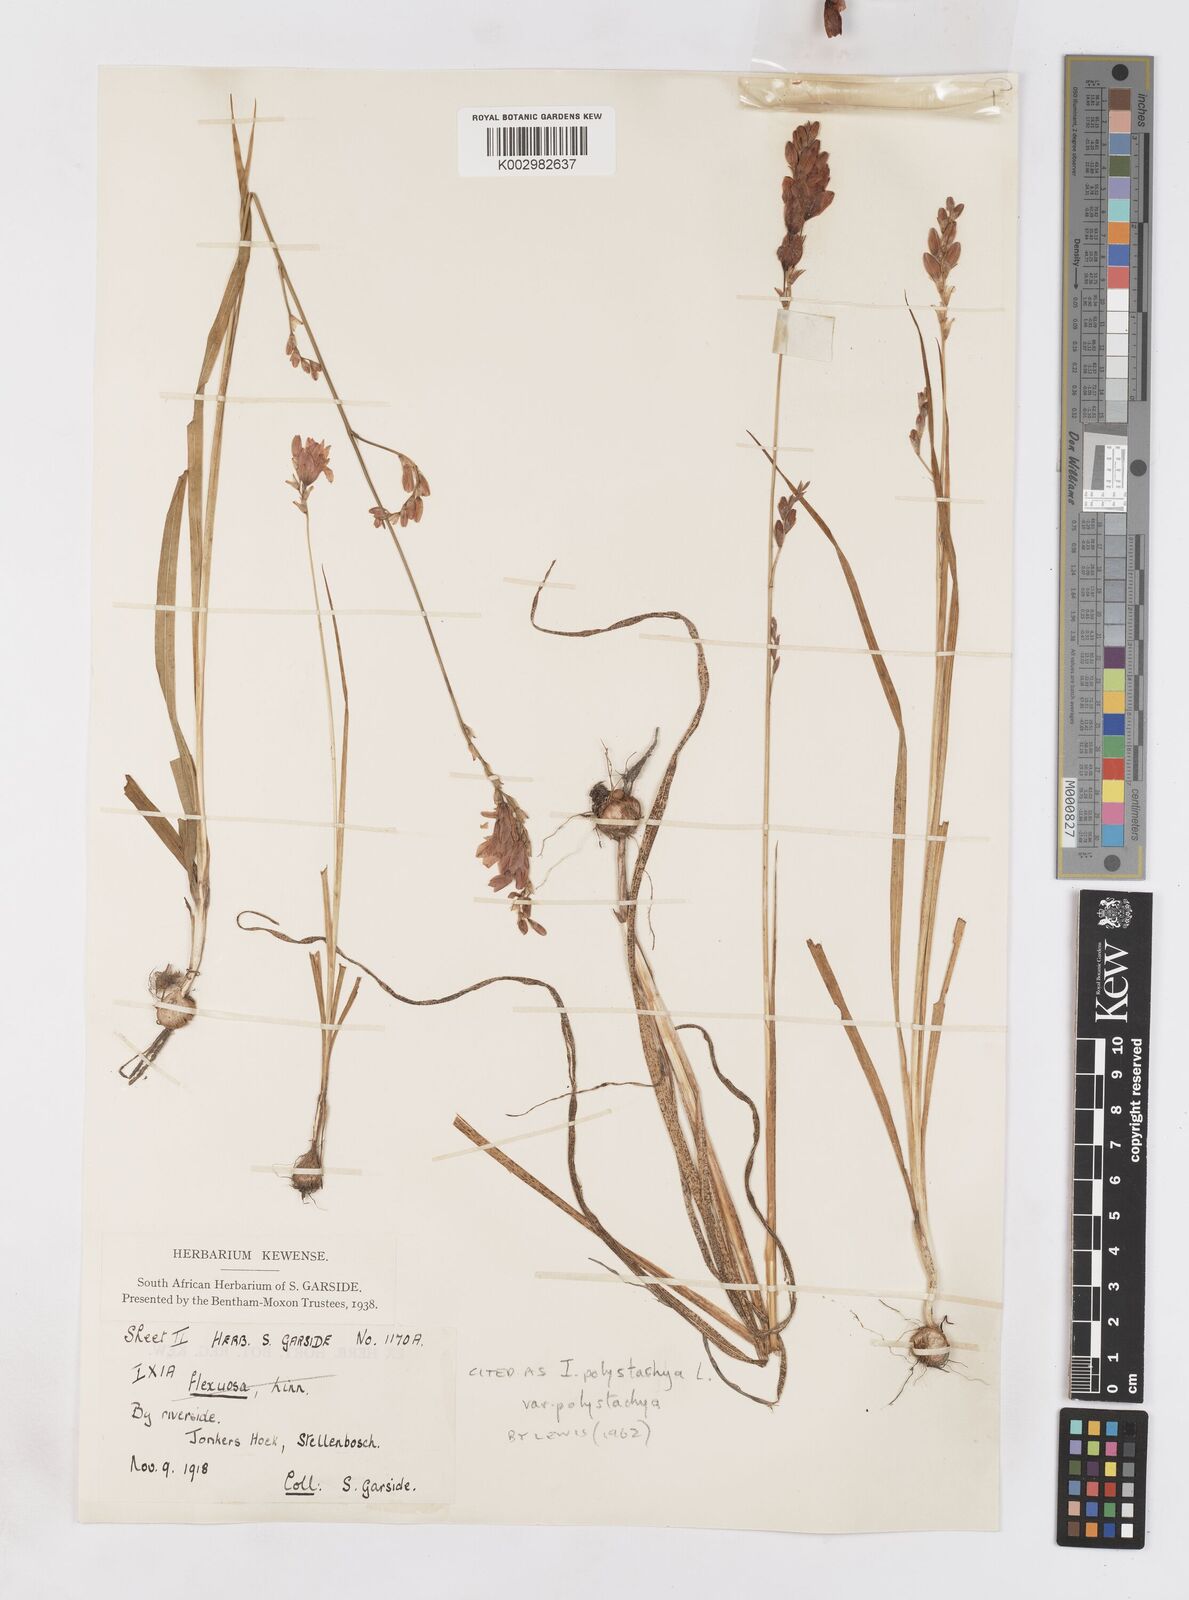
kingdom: Plantae
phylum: Tracheophyta
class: Liliopsida
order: Asparagales
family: Iridaceae
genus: Ixia
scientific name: Ixia polystachya
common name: White-and-yellow-flower cornlily
